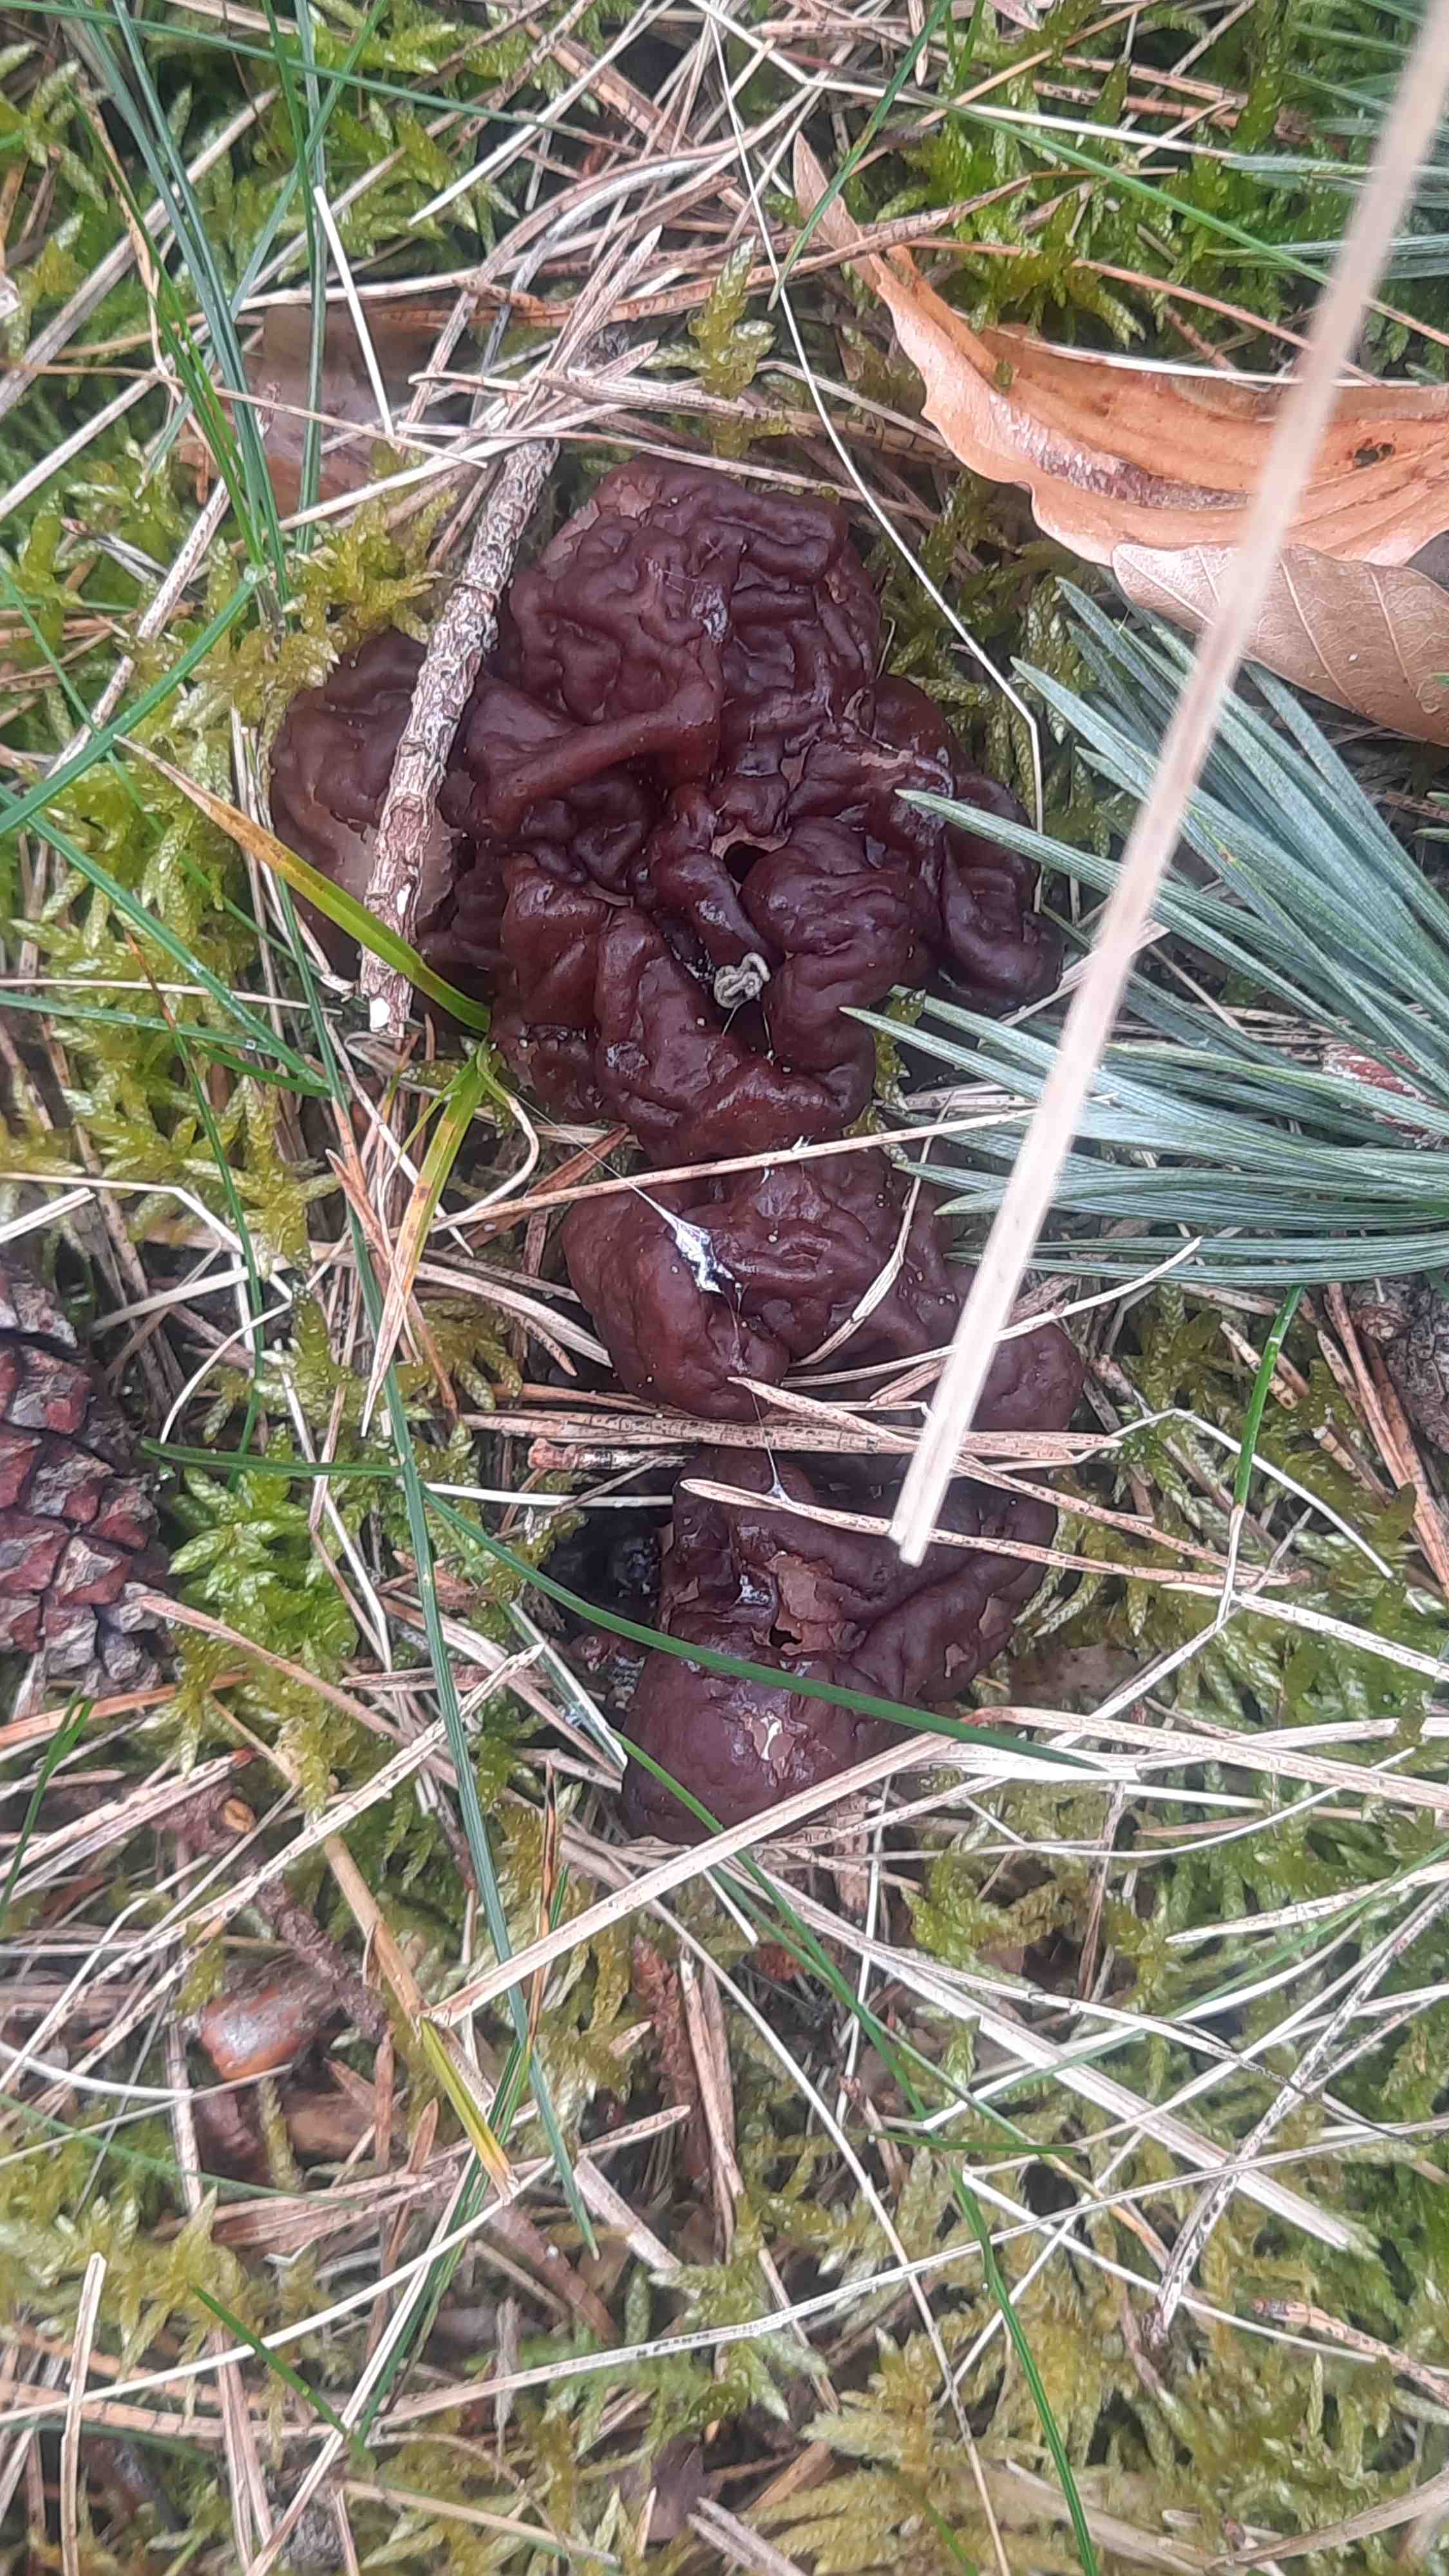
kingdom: Fungi
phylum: Ascomycota
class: Pezizomycetes
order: Pezizales
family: Discinaceae
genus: Gyromitra
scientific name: Gyromitra esculenta
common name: ægte stenmorkel
